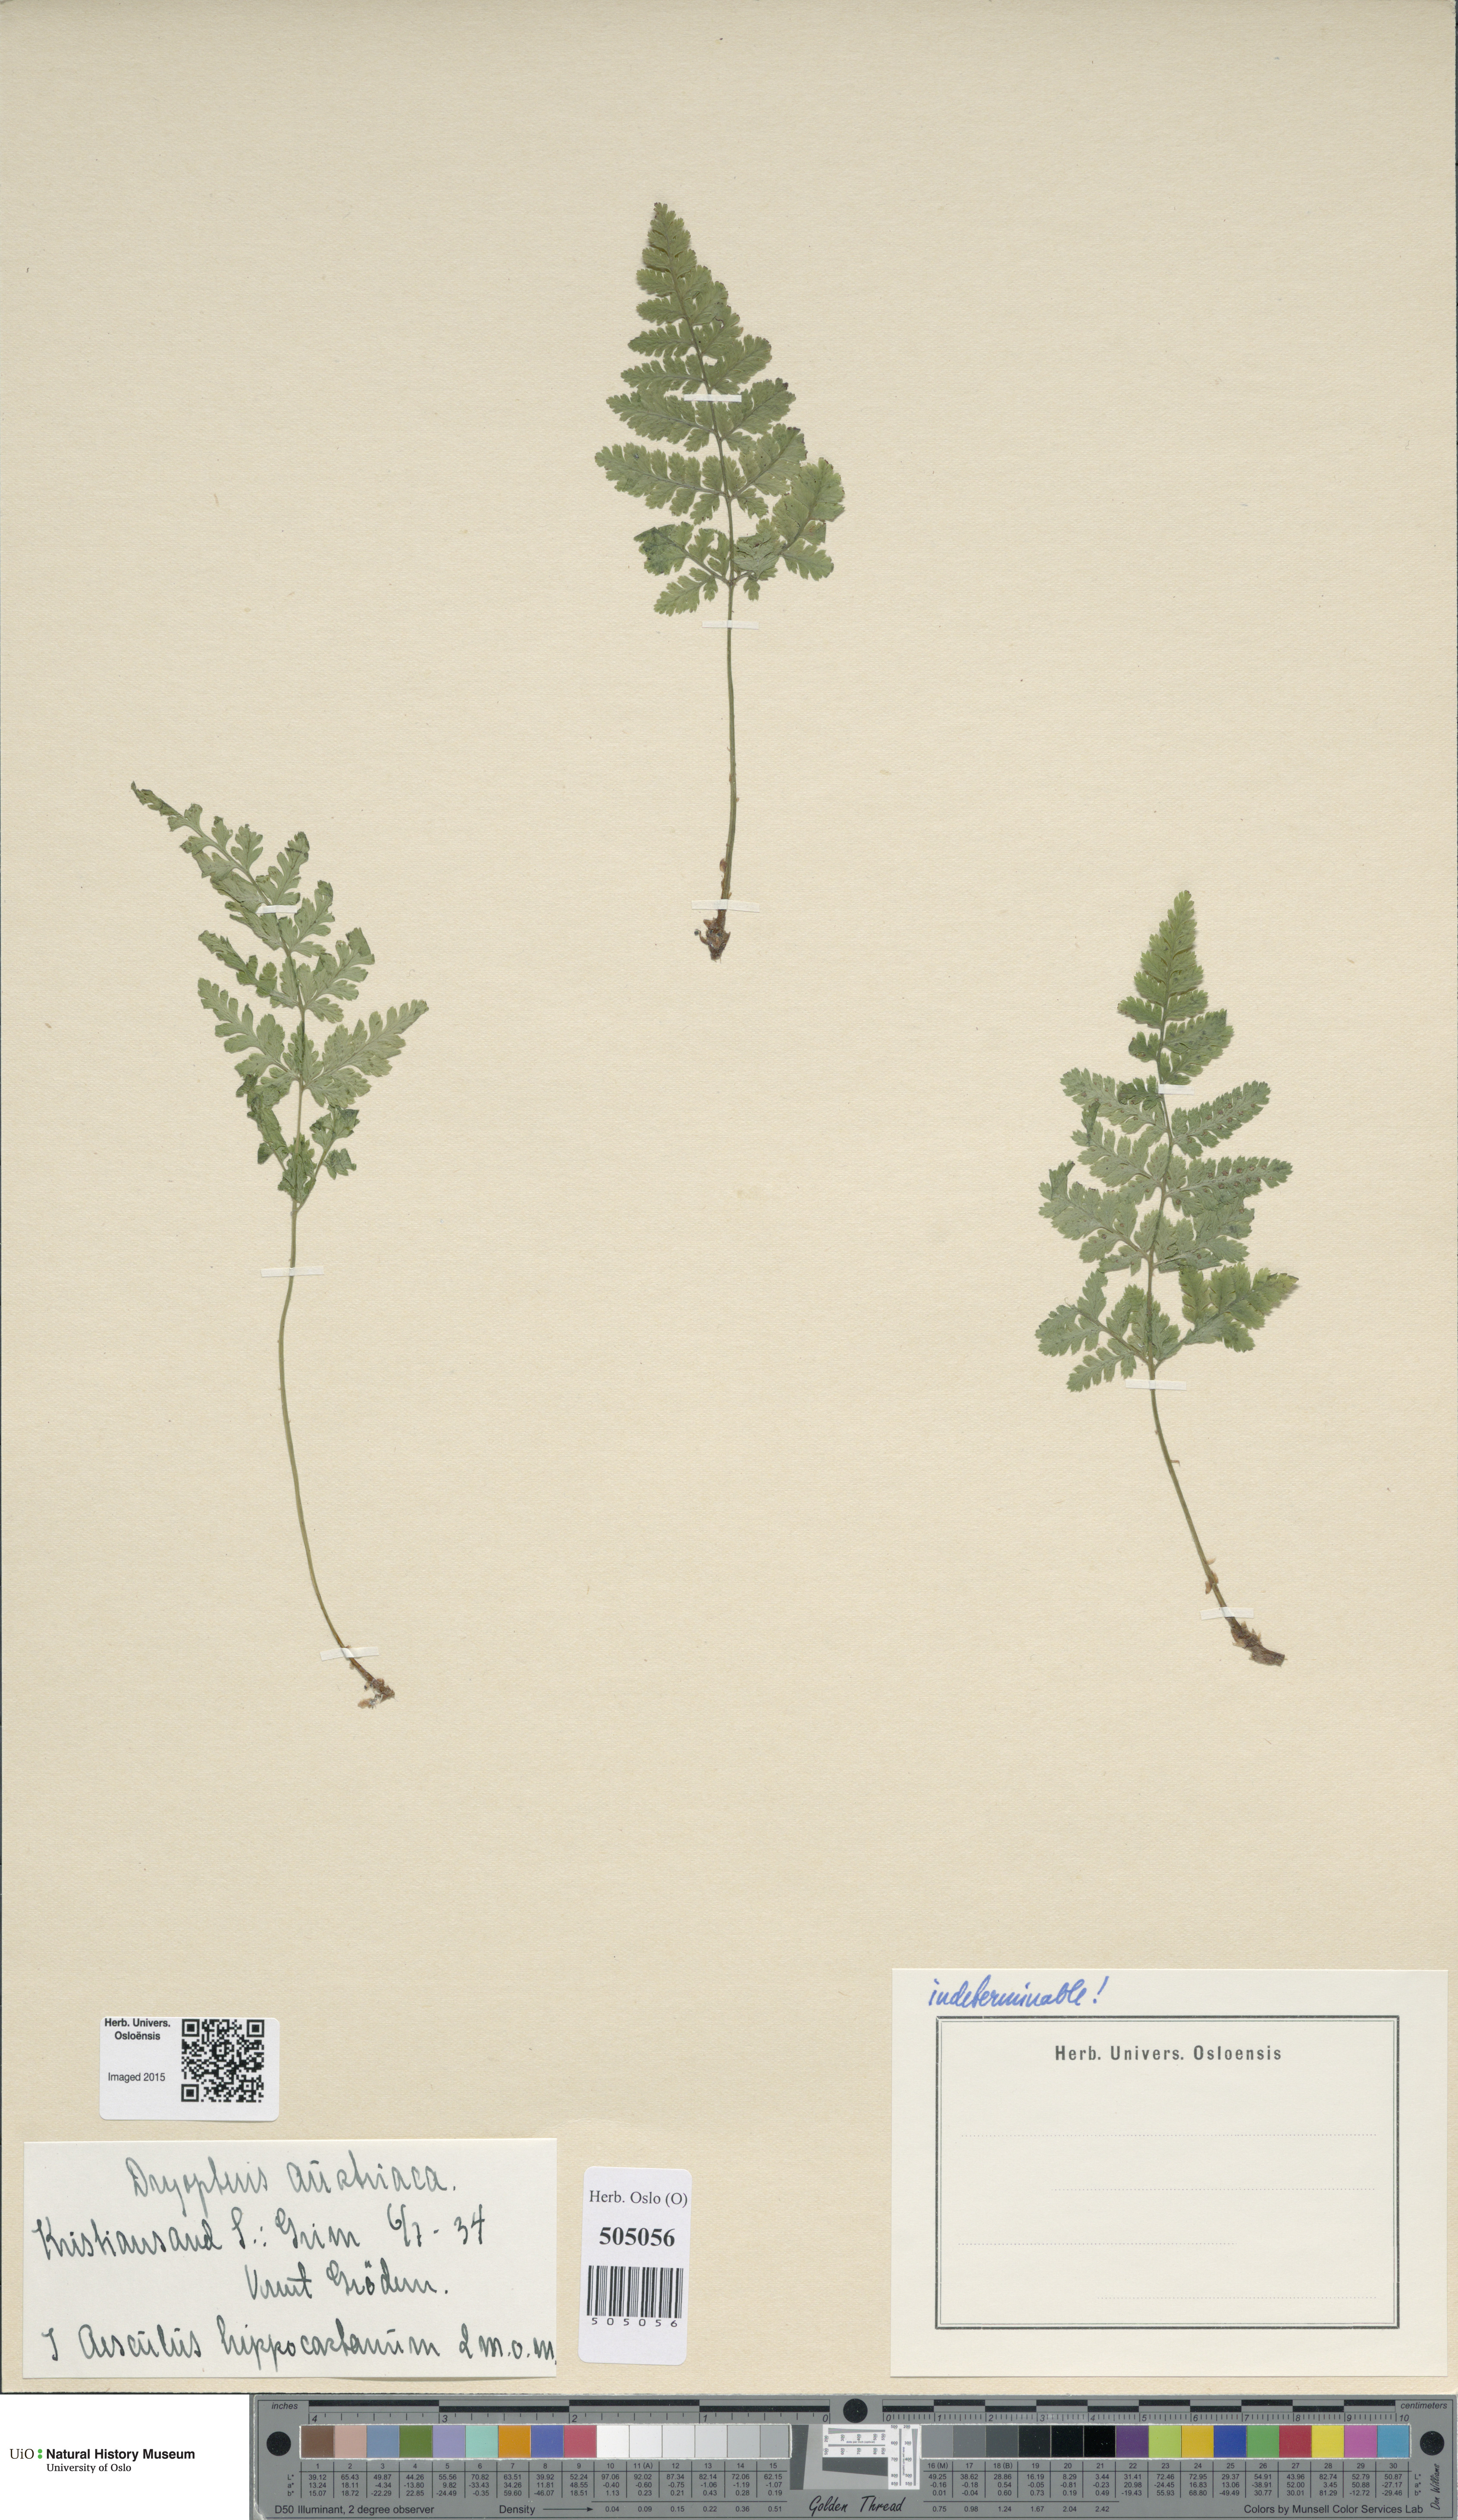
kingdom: Plantae
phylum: Tracheophyta
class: Polypodiopsida
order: Polypodiales
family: Dryopteridaceae
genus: Dryopteris
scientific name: Dryopteris dilatata
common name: Broad buckler-fern
